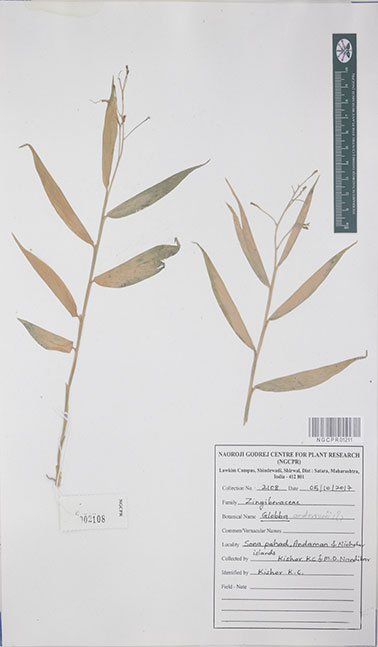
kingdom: Plantae
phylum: Tracheophyta
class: Liliopsida
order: Zingiberales
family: Zingiberaceae
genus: Globba
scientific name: Globba andersonii
